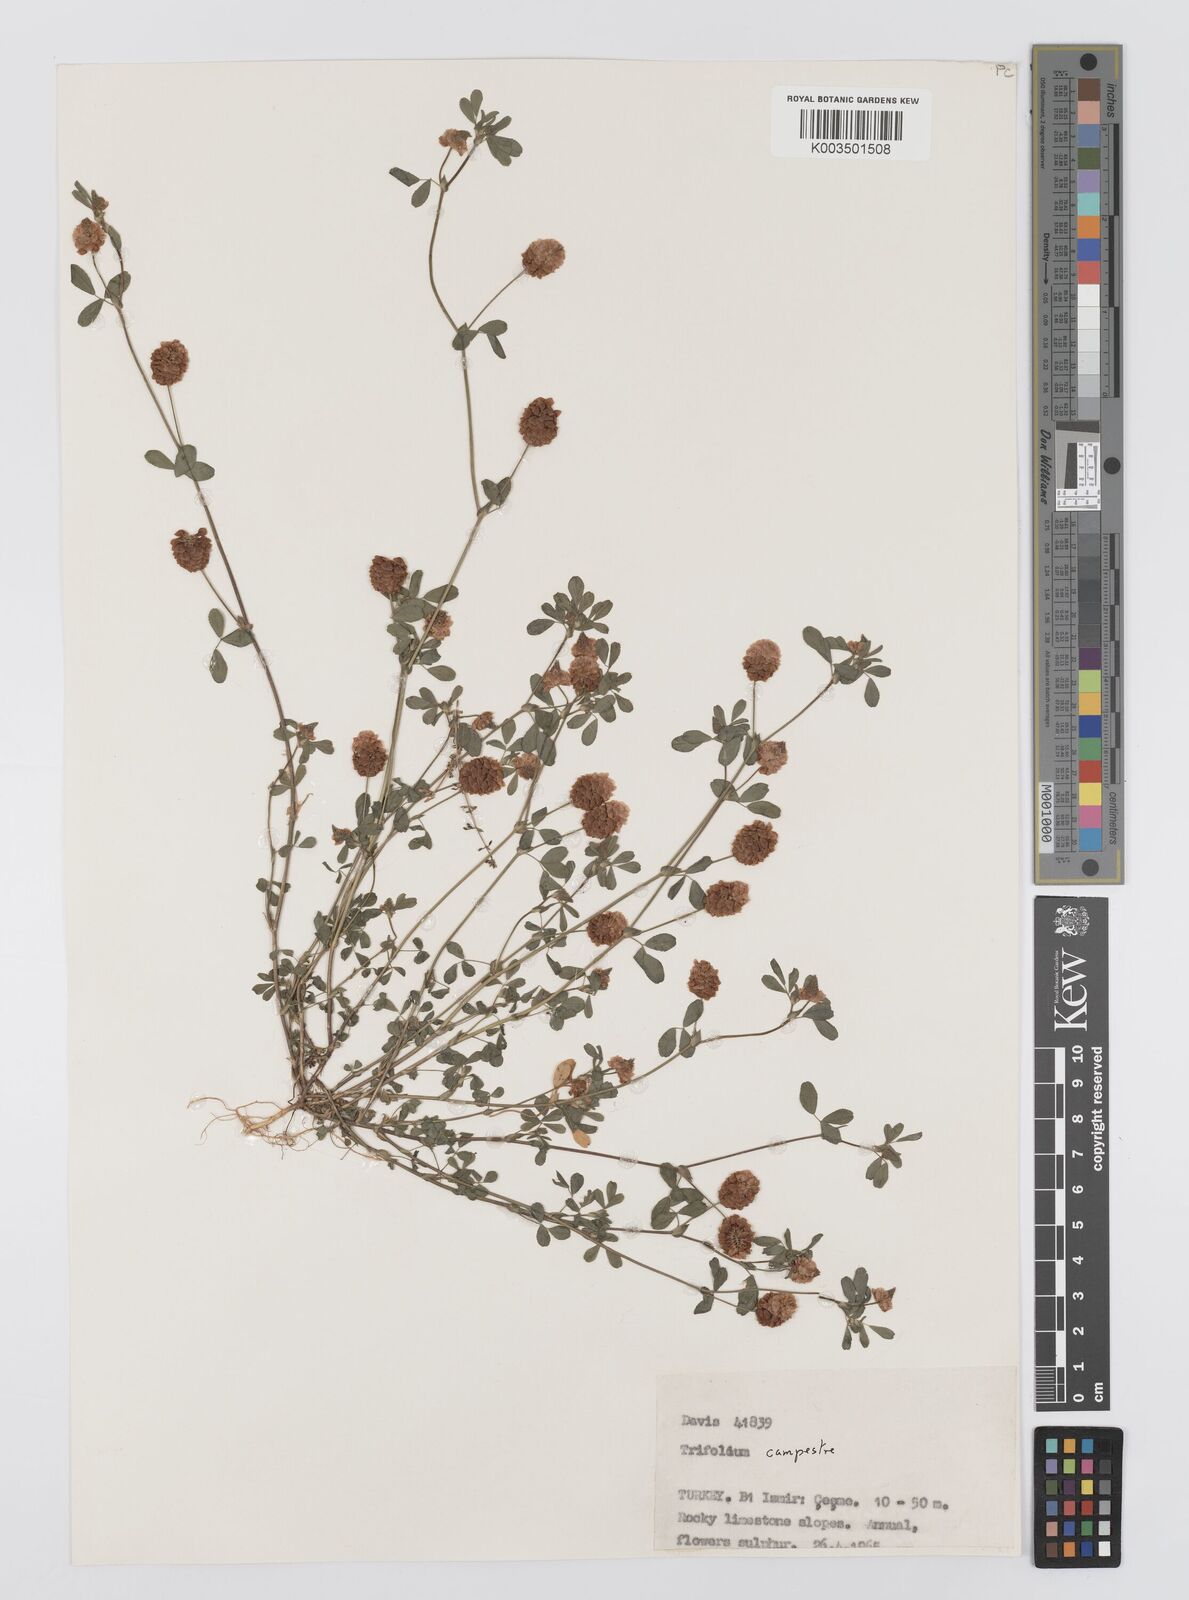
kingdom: Plantae
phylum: Tracheophyta
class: Magnoliopsida
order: Fabales
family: Fabaceae
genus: Trifolium
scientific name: Trifolium campestre
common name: Field clover
